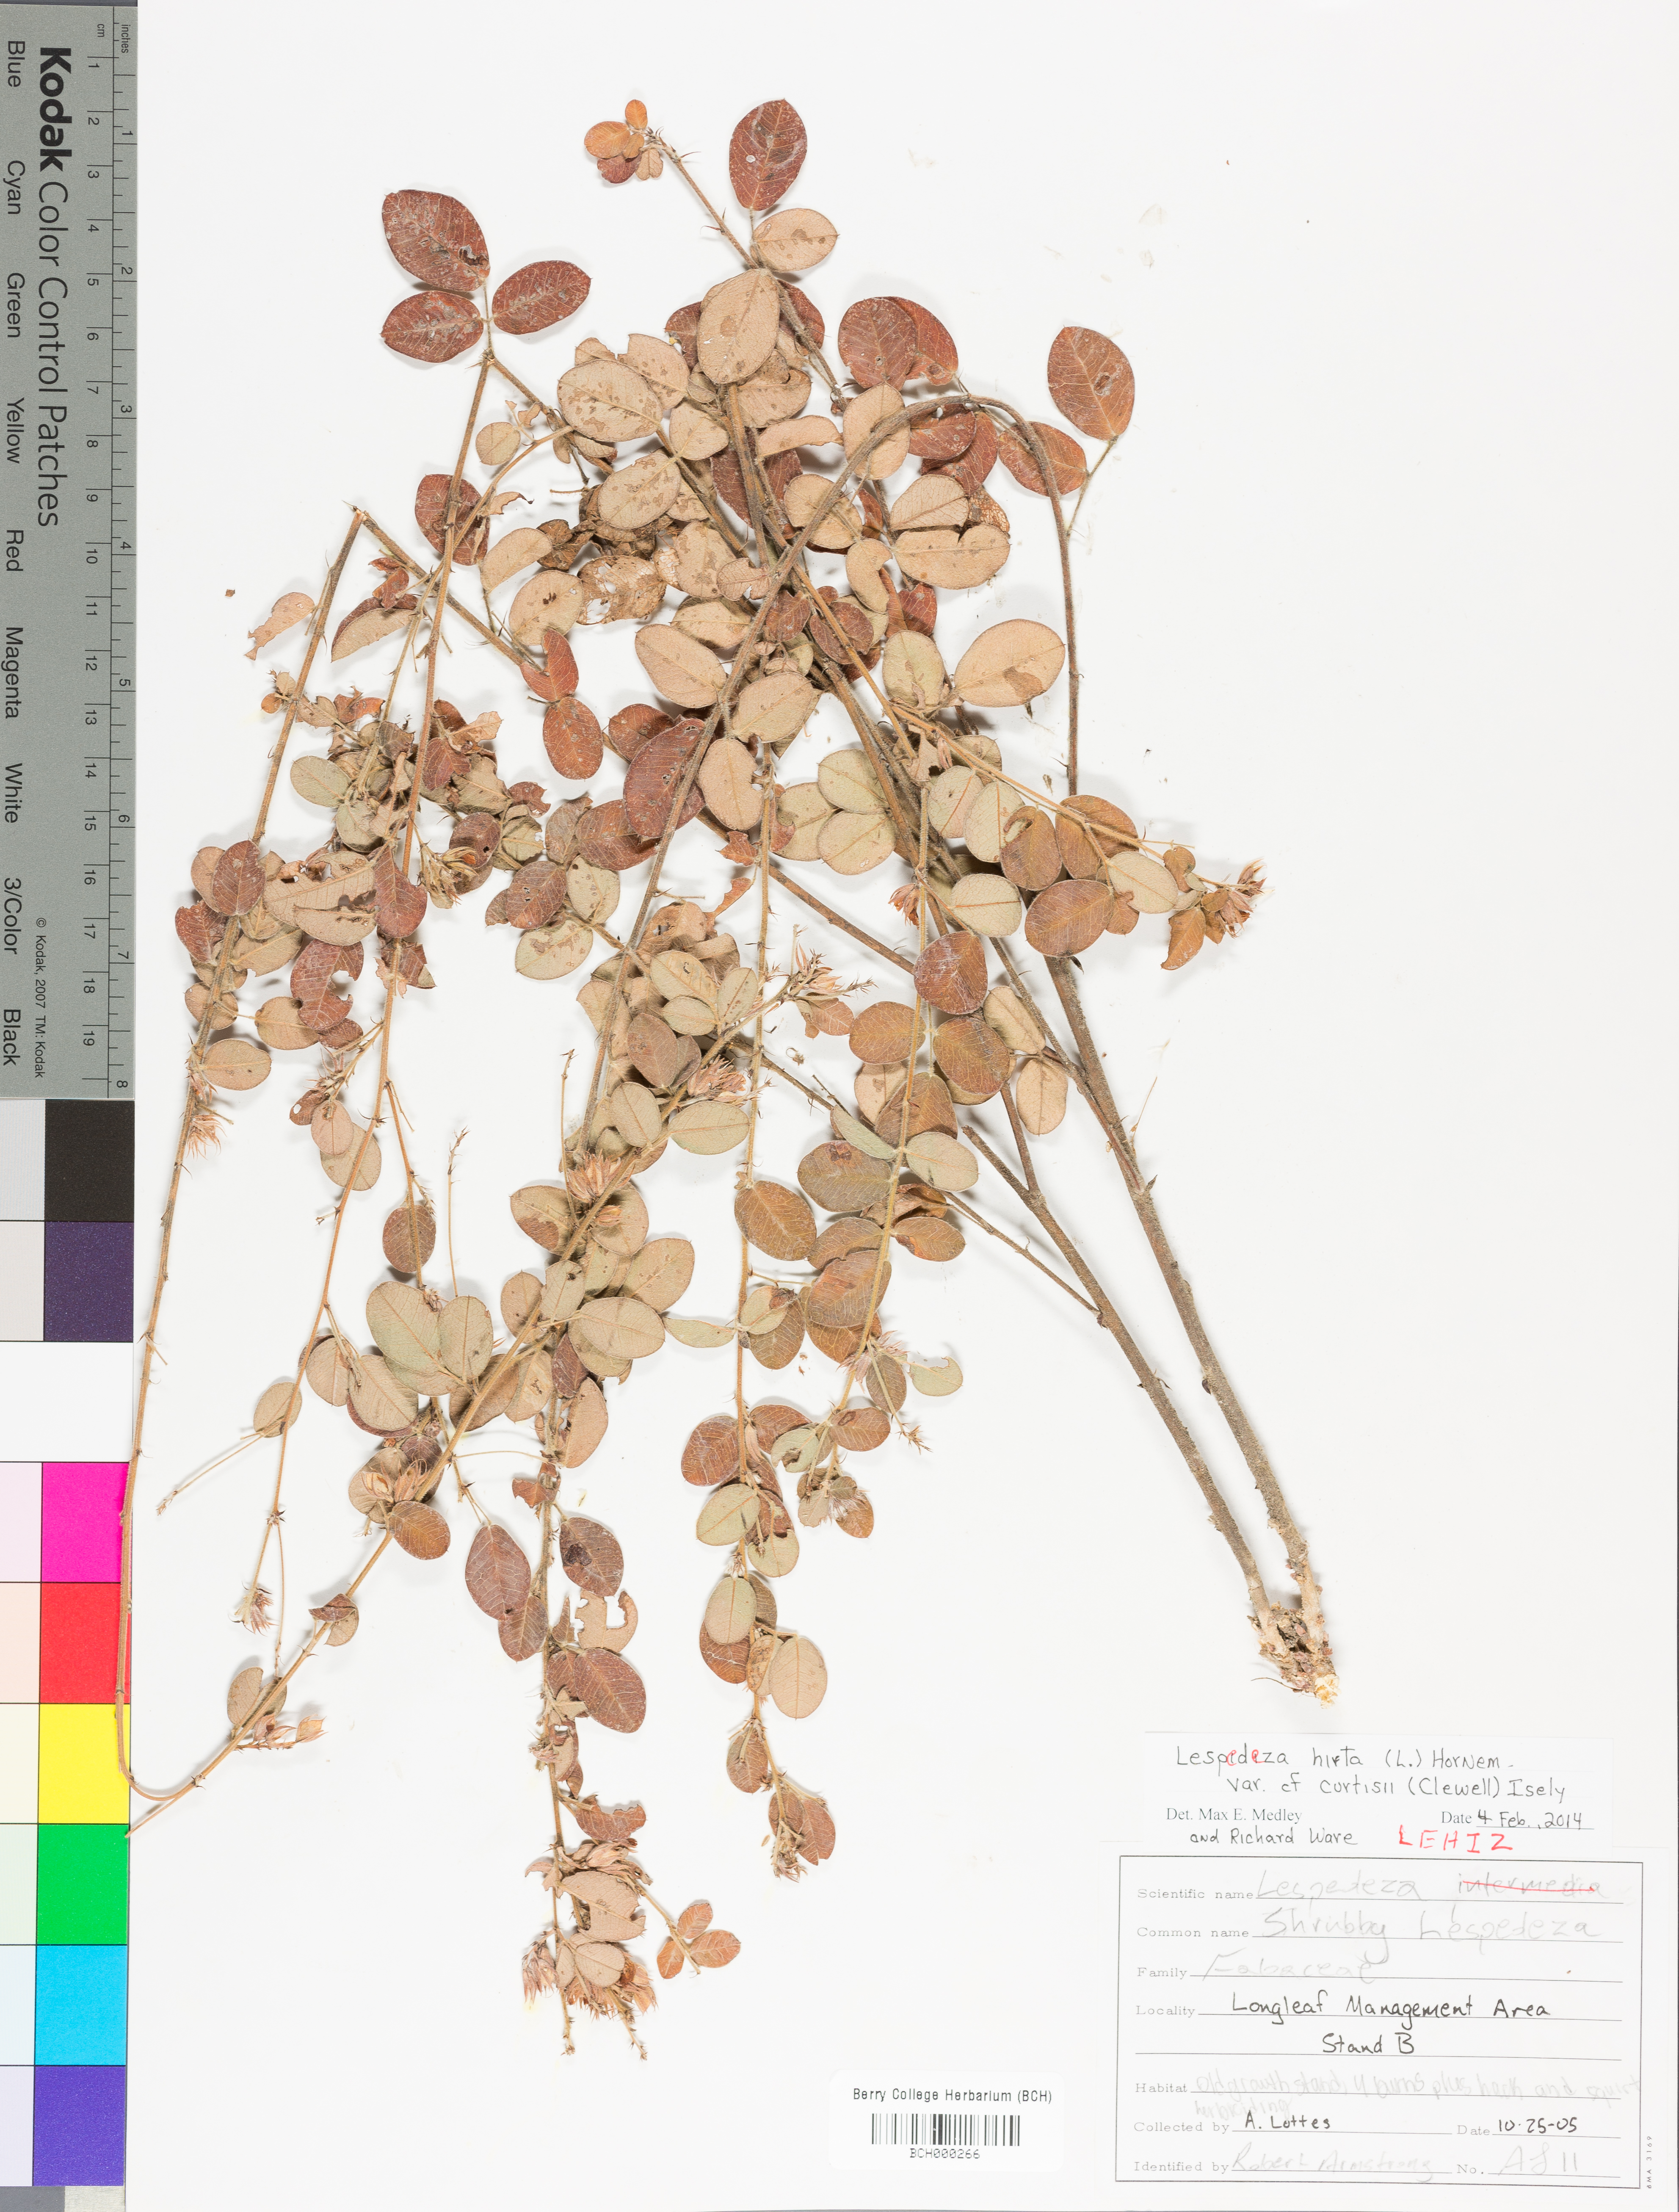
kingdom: Plantae
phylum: Tracheophyta
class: Magnoliopsida
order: Fabales
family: Fabaceae
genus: Lespedeza
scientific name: Lespedeza hirta
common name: Hairy lespedeza
